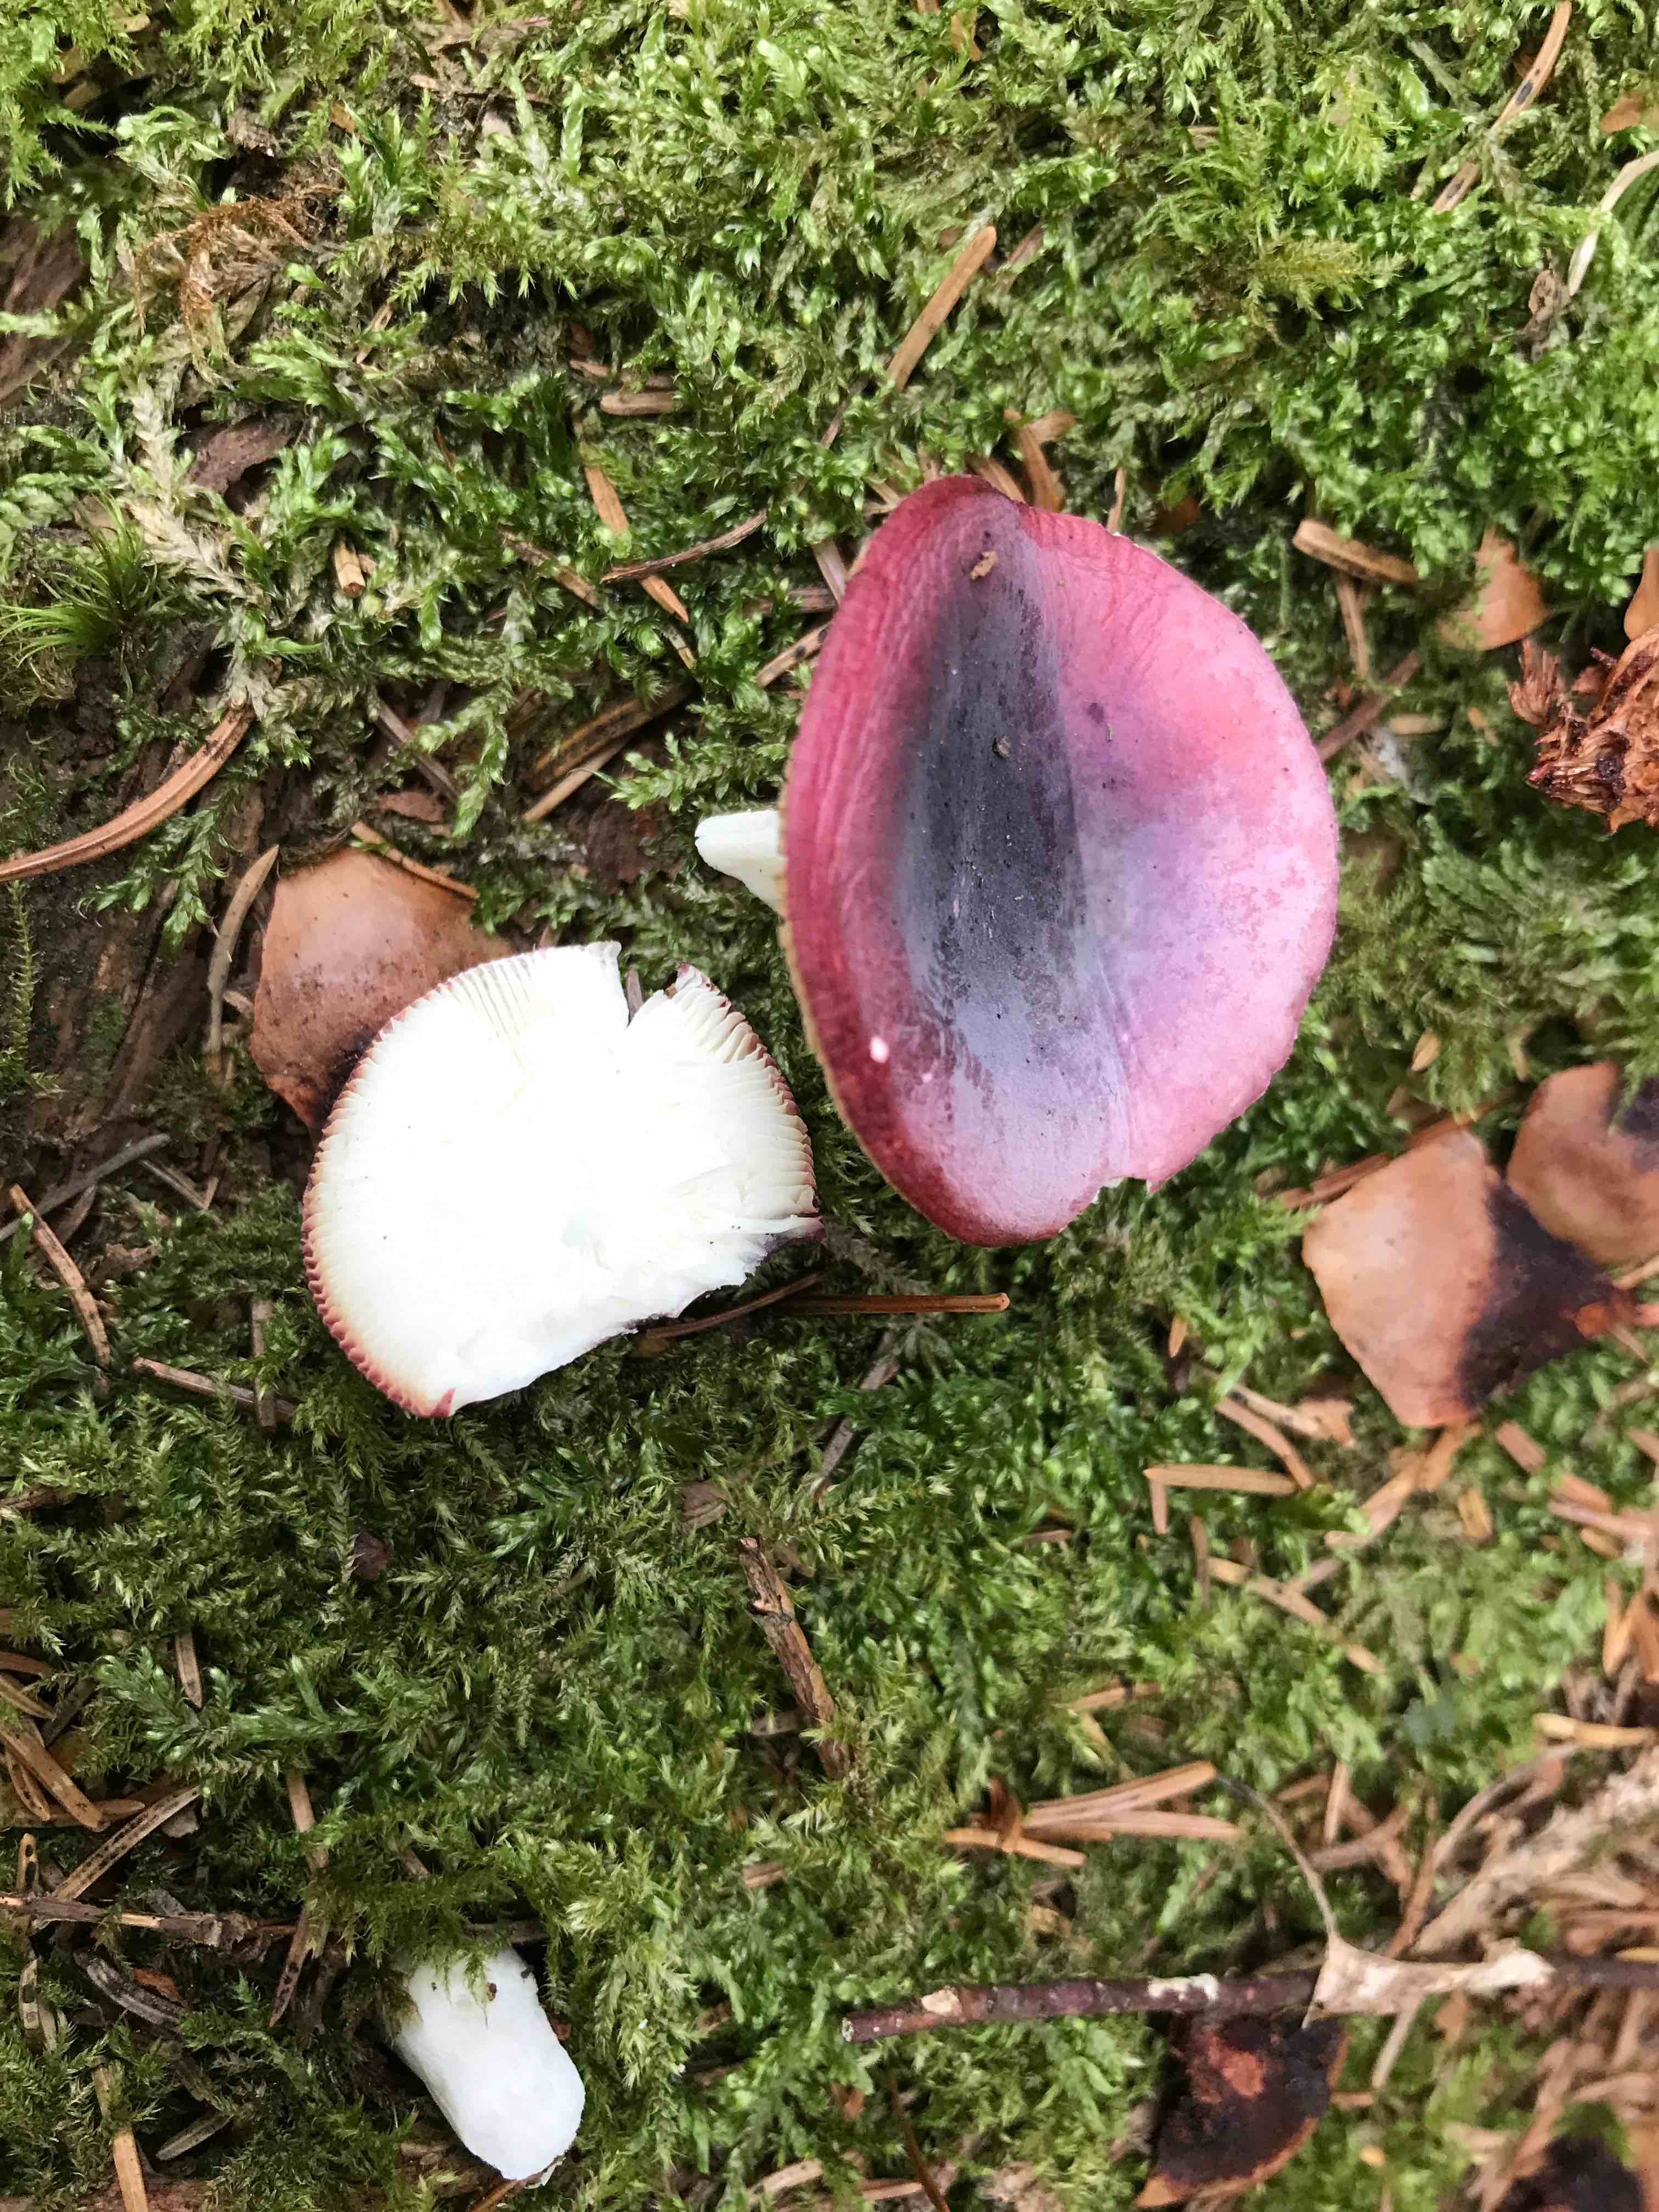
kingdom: Fungi
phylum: Basidiomycota
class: Agaricomycetes
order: Russulales
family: Russulaceae
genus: Russula
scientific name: Russula
